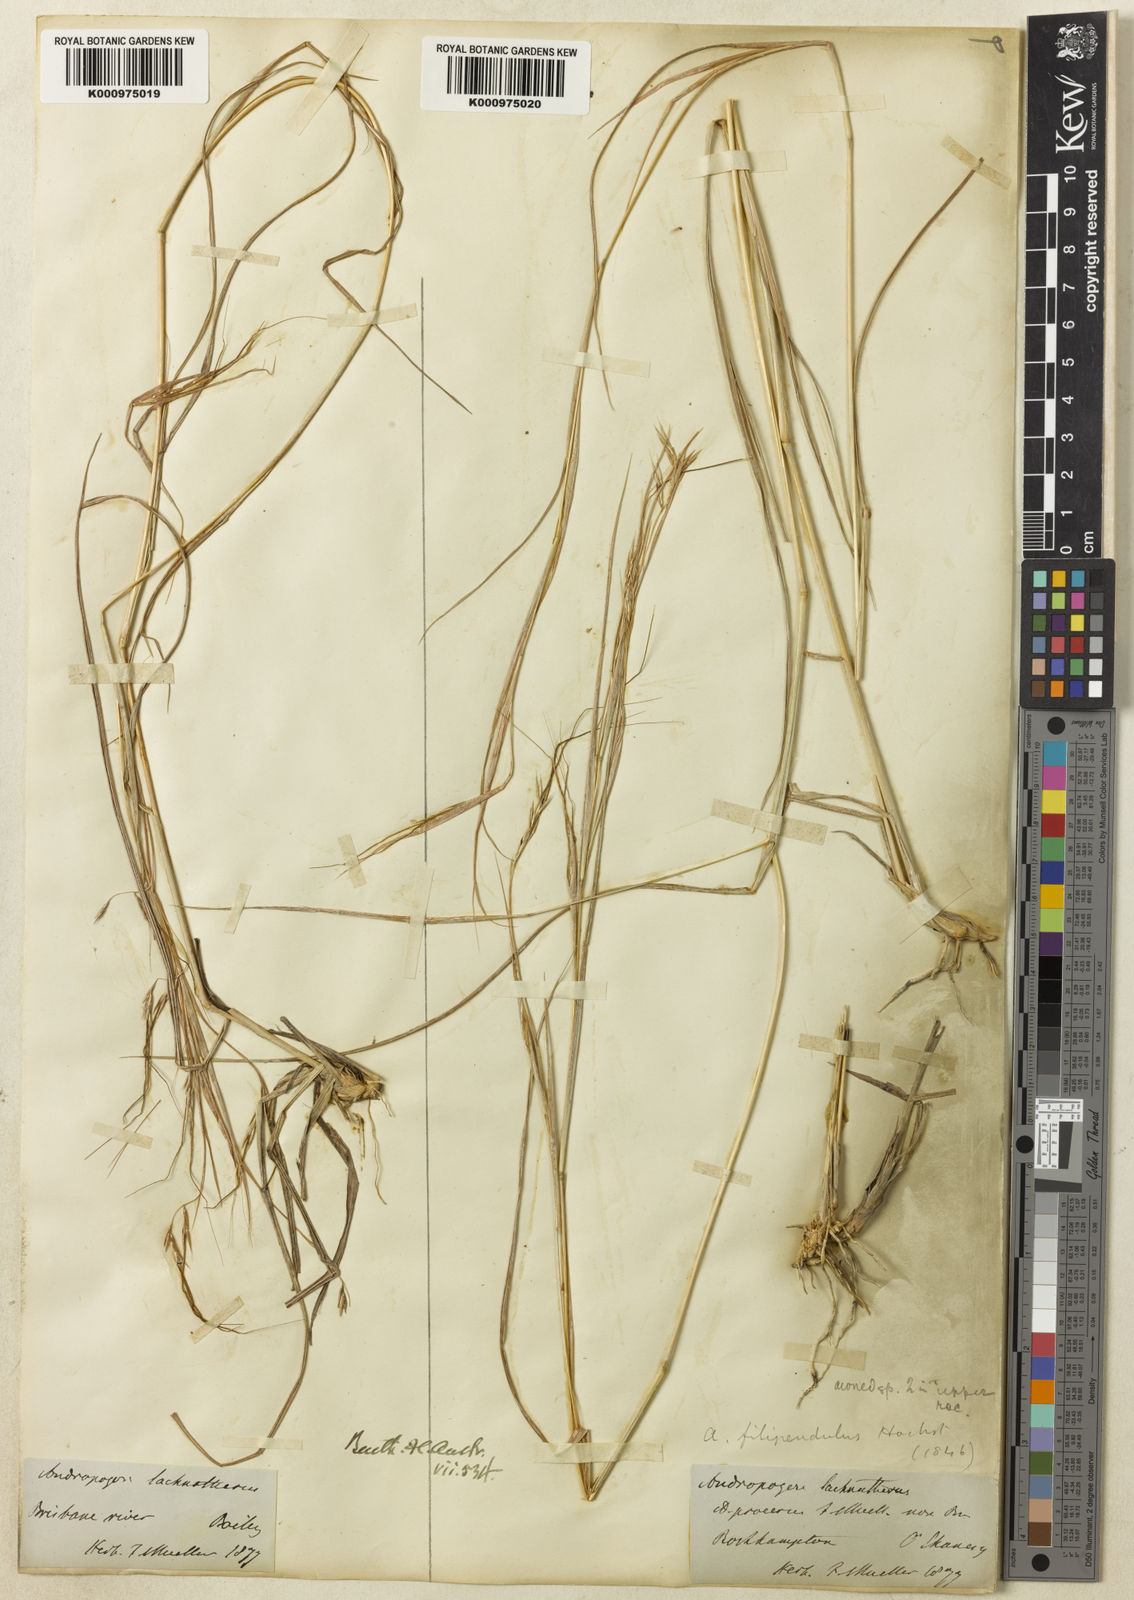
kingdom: Plantae
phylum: Tracheophyta
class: Liliopsida
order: Poales
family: Poaceae
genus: Hyparrhenia
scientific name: Hyparrhenia filipendula
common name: Tambookie grass
